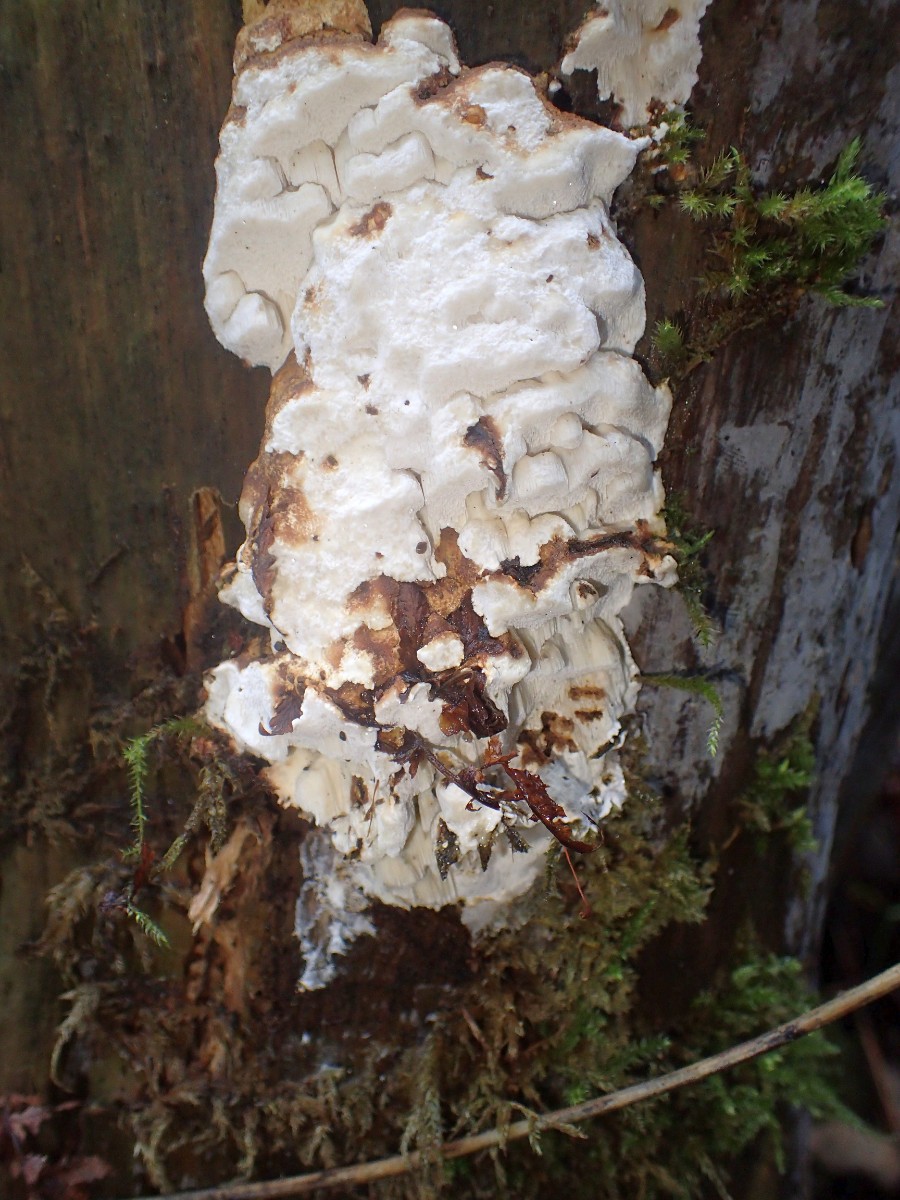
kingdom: Fungi
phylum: Basidiomycota
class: Agaricomycetes
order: Polyporales
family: Fomitopsidaceae
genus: Neoantrodia
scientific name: Neoantrodia serialis
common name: række-sejporesvamp
